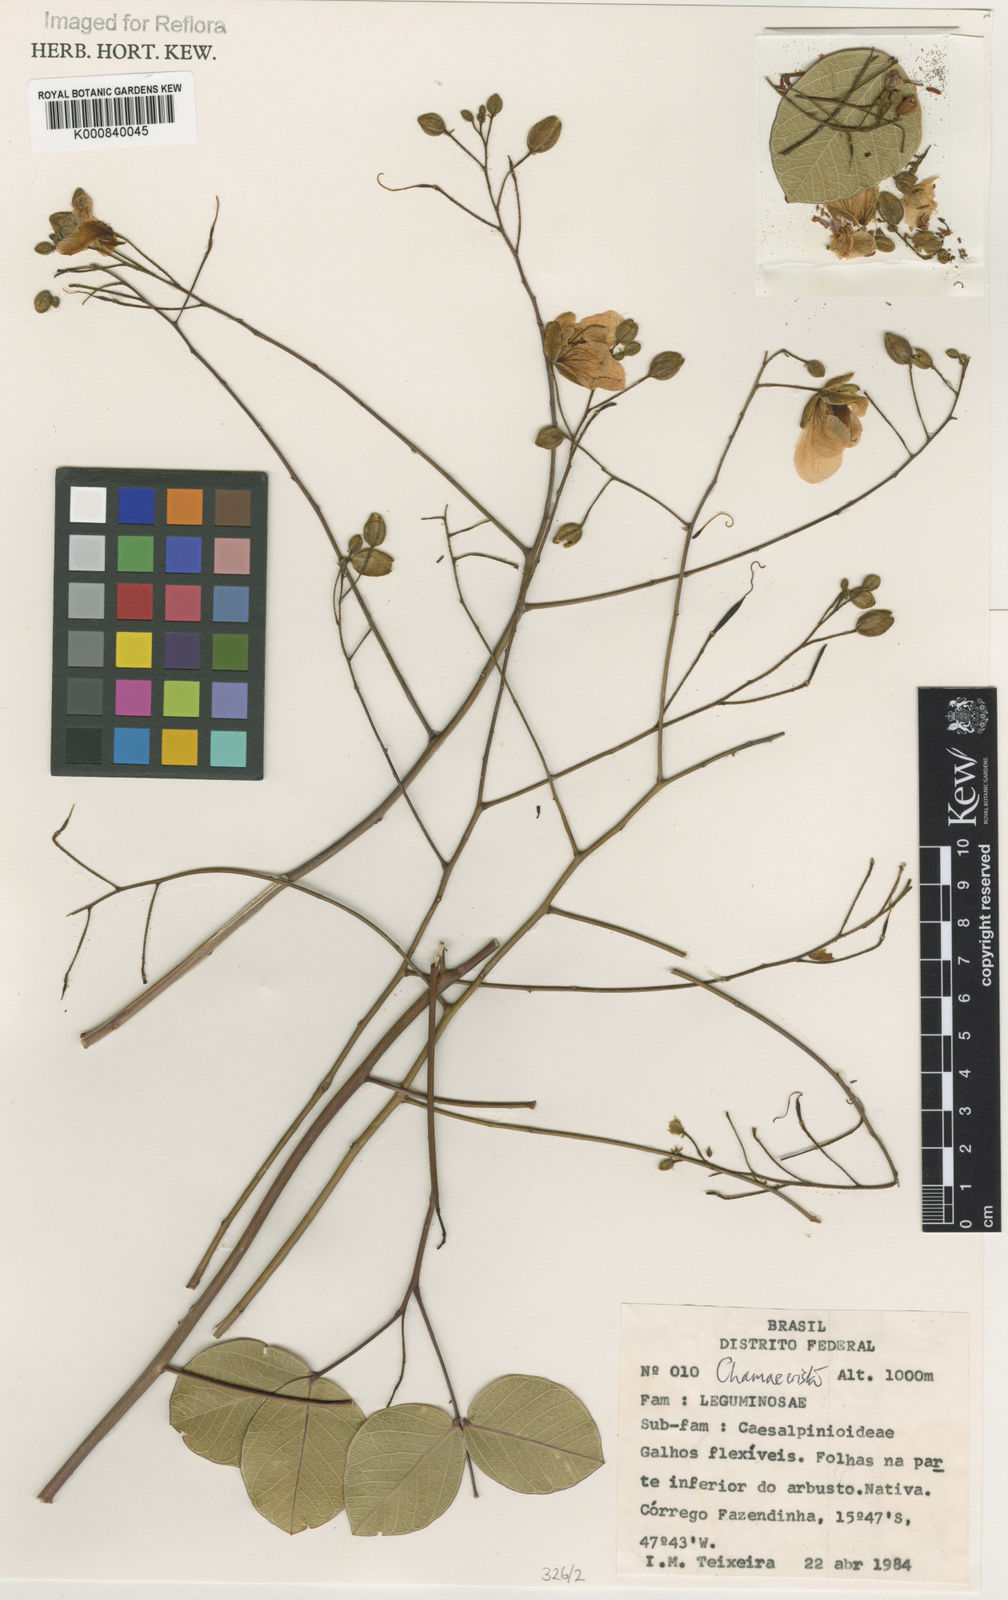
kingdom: Plantae
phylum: Tracheophyta
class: Magnoliopsida
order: Fabales
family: Fabaceae
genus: Chamaecrista
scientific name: Chamaecrista
